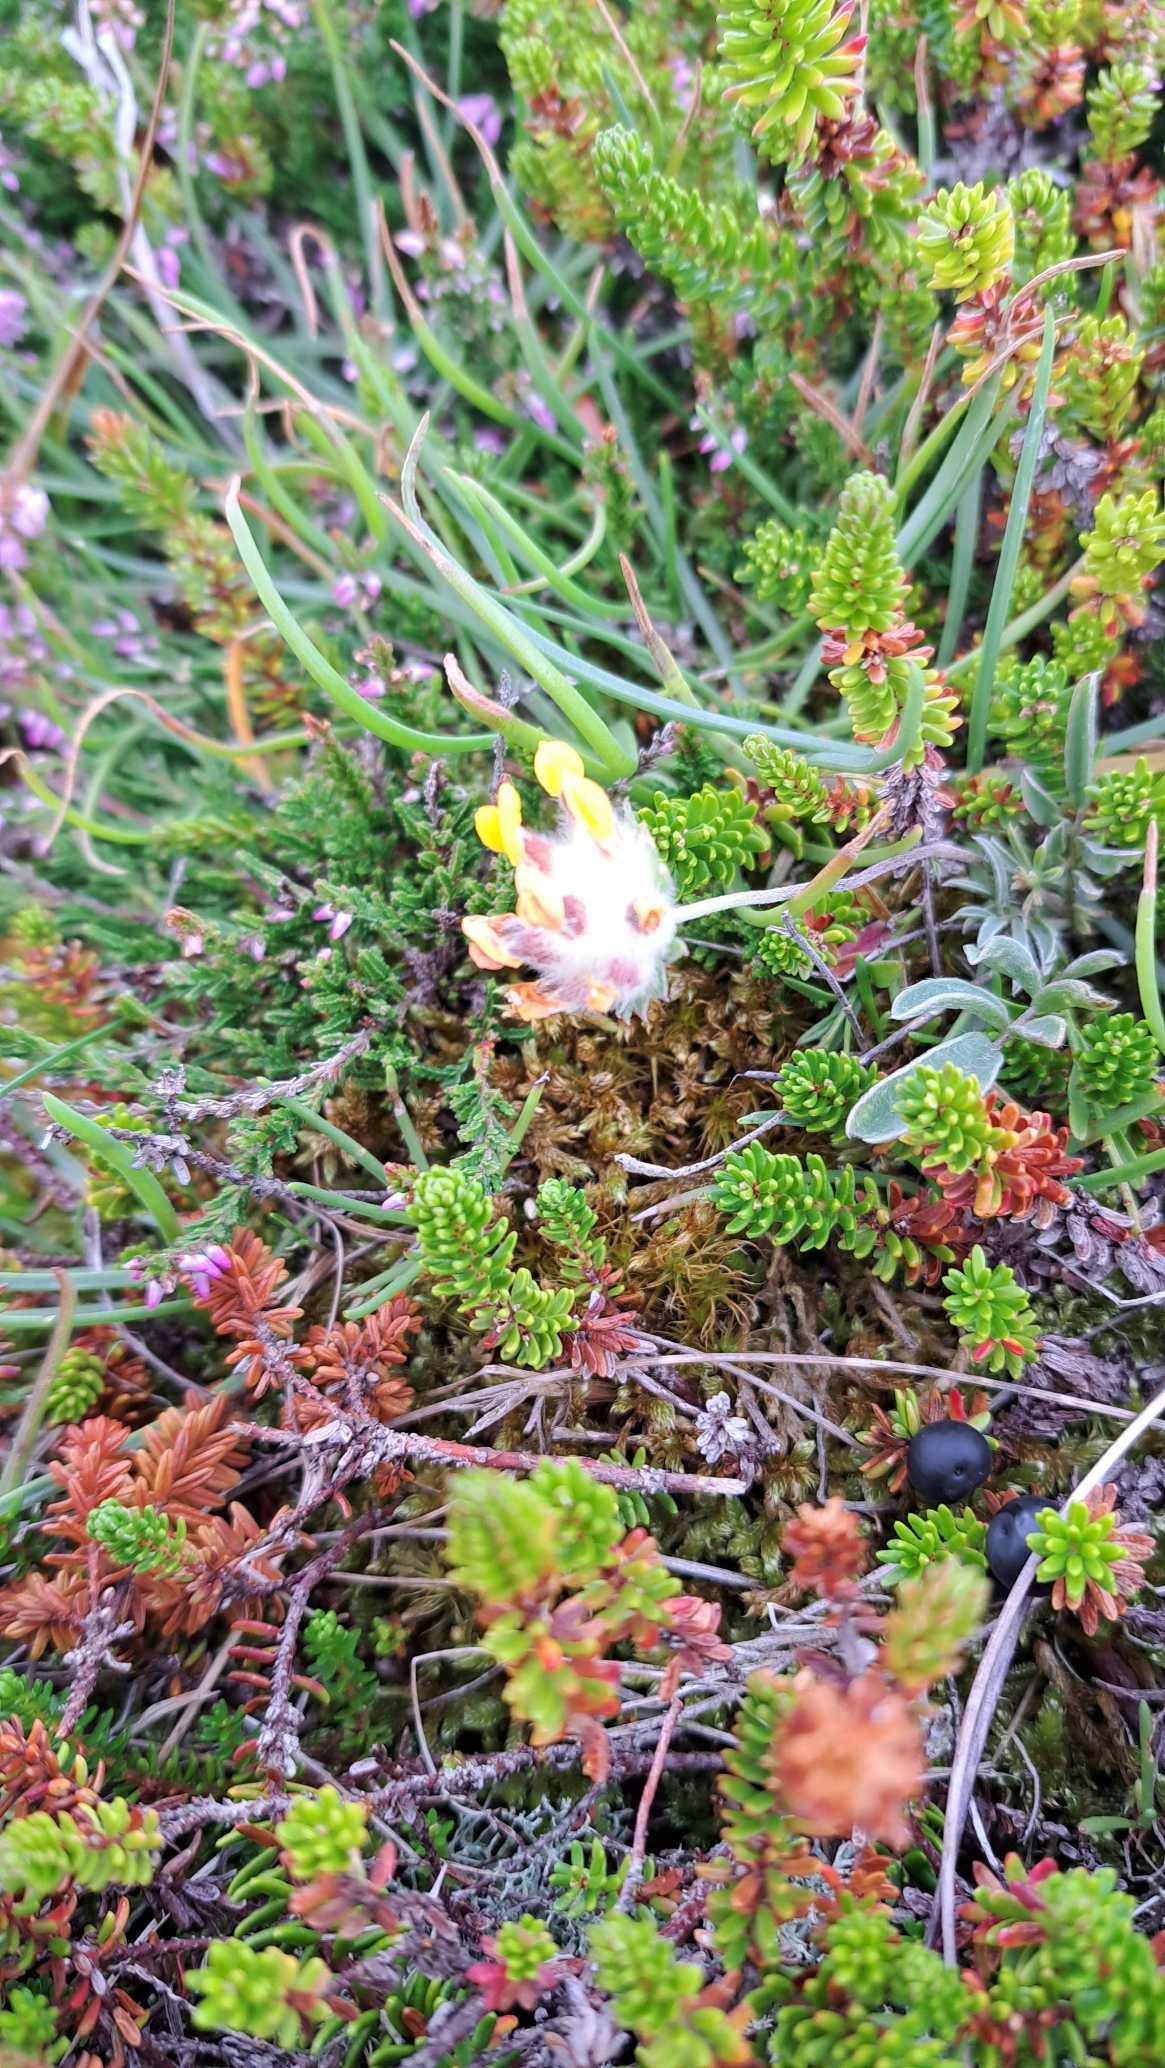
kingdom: Plantae
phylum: Tracheophyta
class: Magnoliopsida
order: Fabales
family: Fabaceae
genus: Anthyllis
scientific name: Anthyllis vulneraria
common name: Rundbælg
